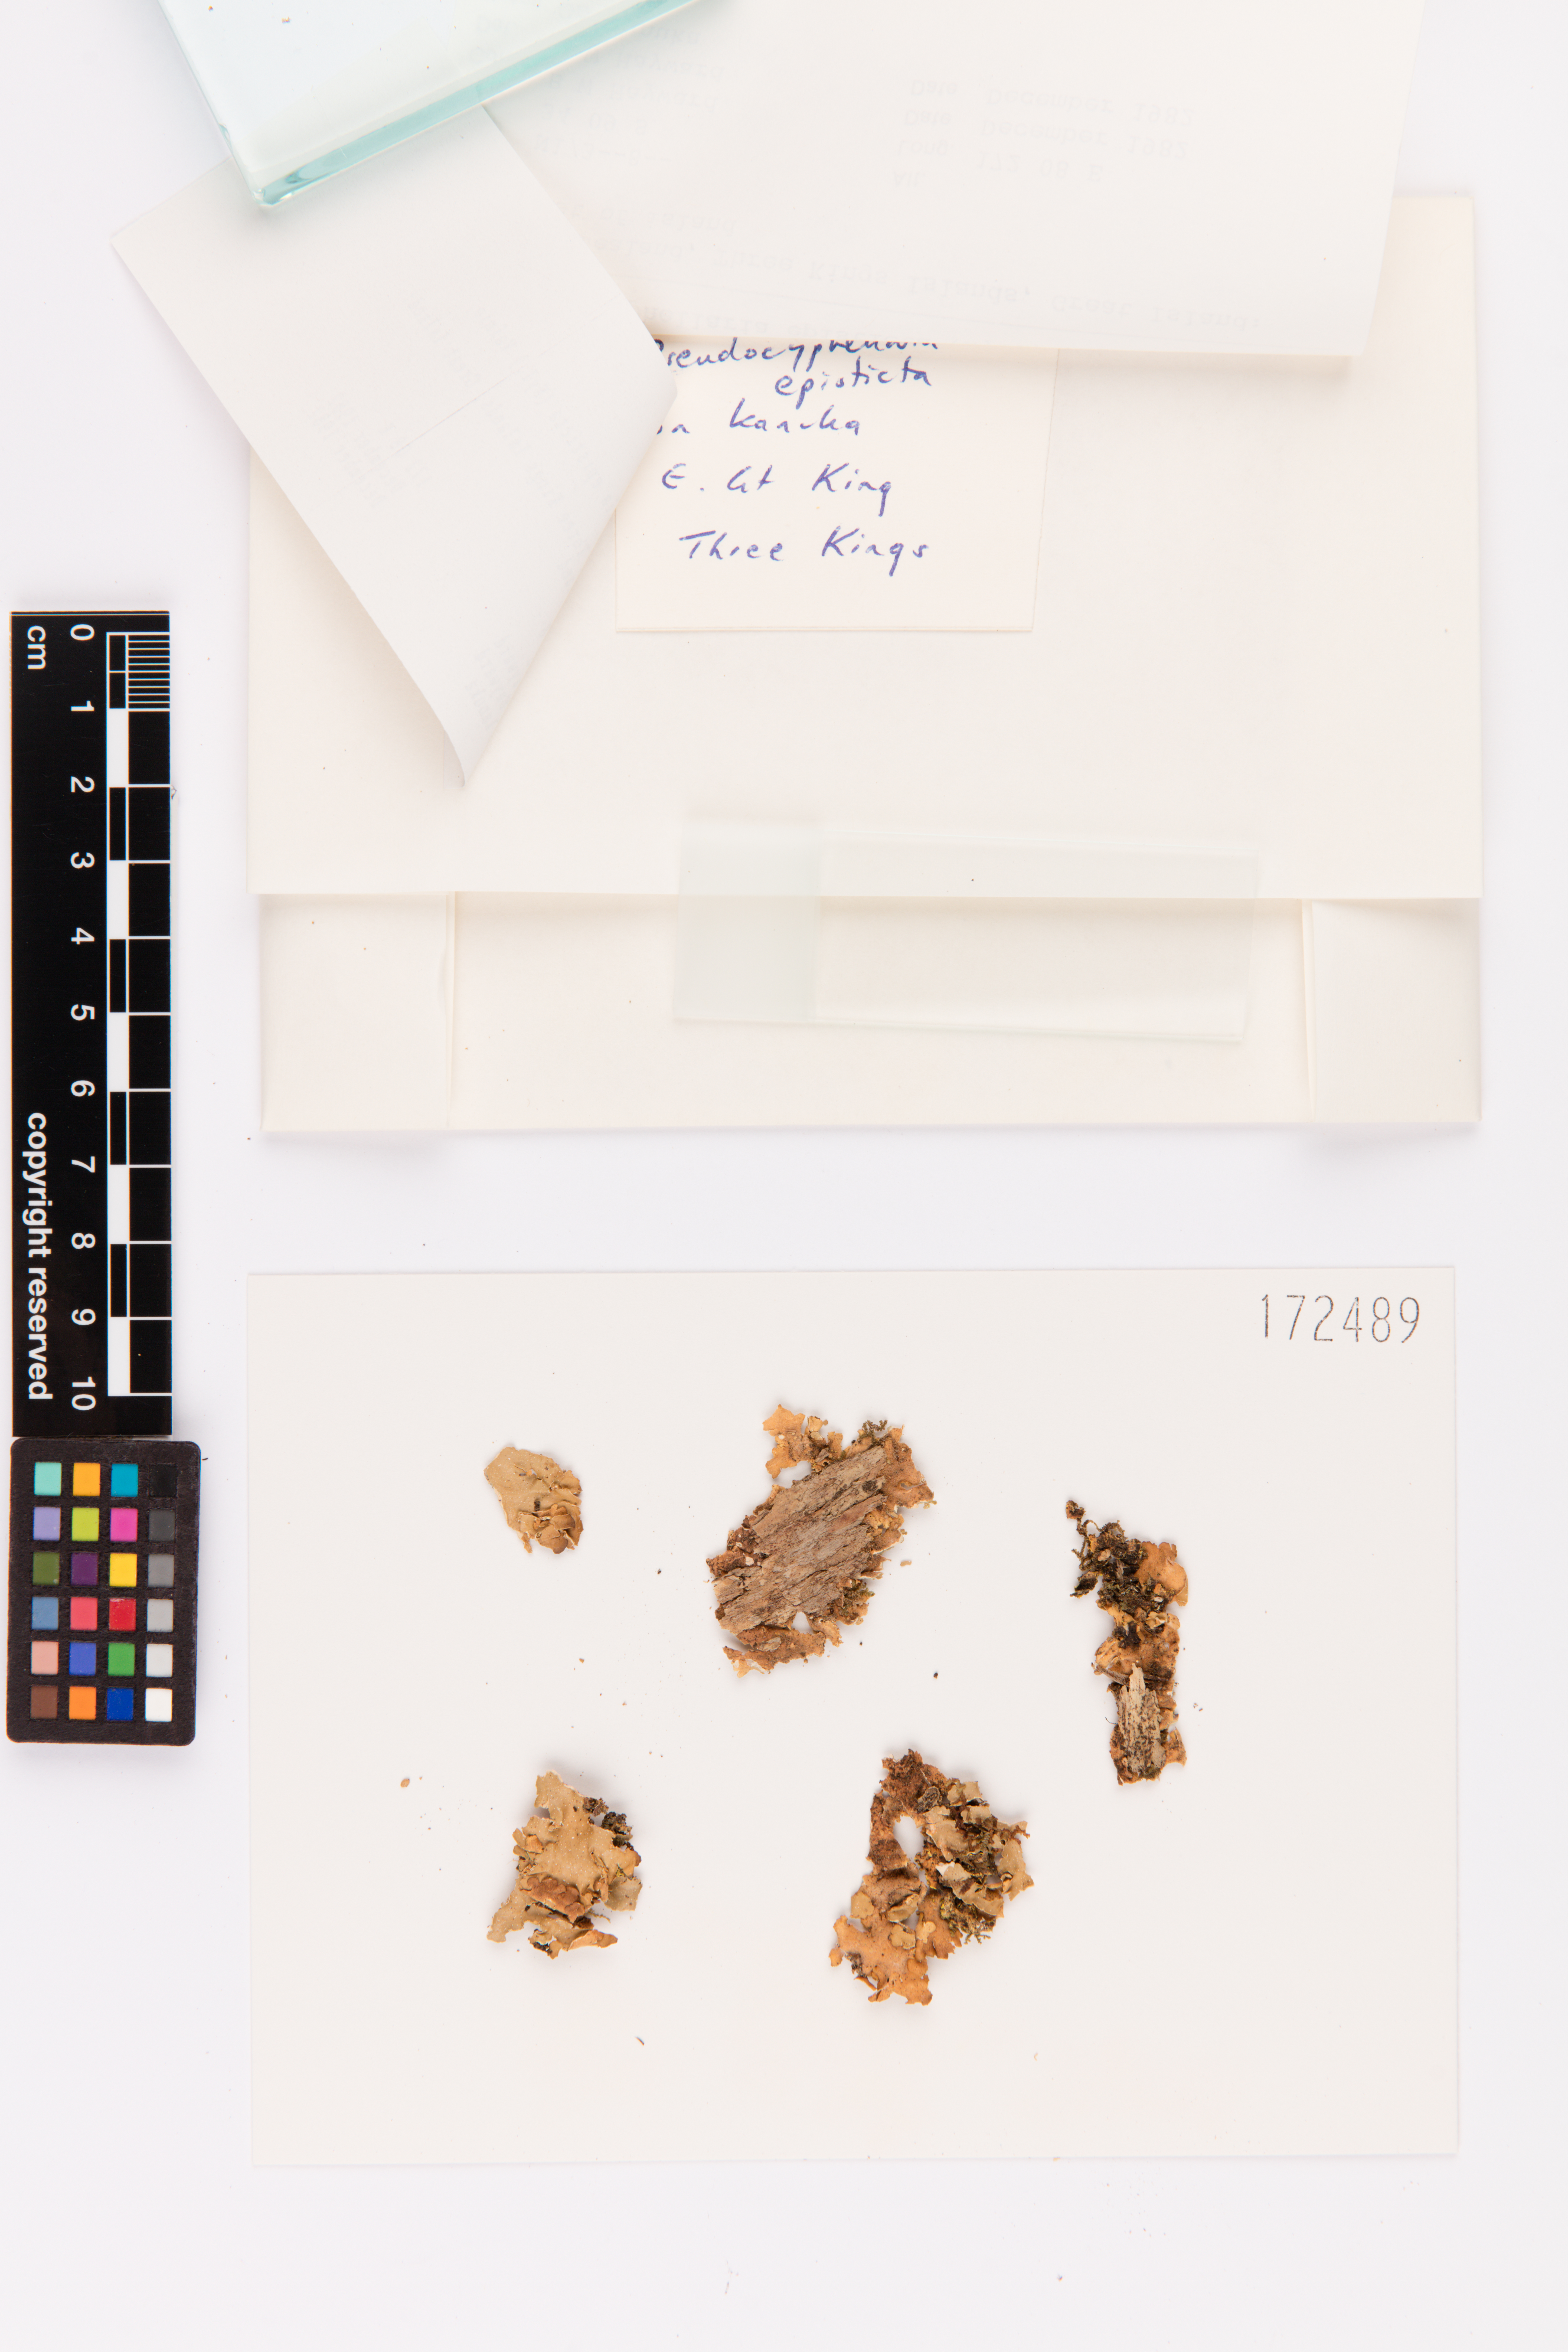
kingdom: Fungi
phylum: Ascomycota
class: Lecanoromycetes
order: Peltigerales
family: Lobariaceae
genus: Pseudocyphellaria
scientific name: Pseudocyphellaria episticta
